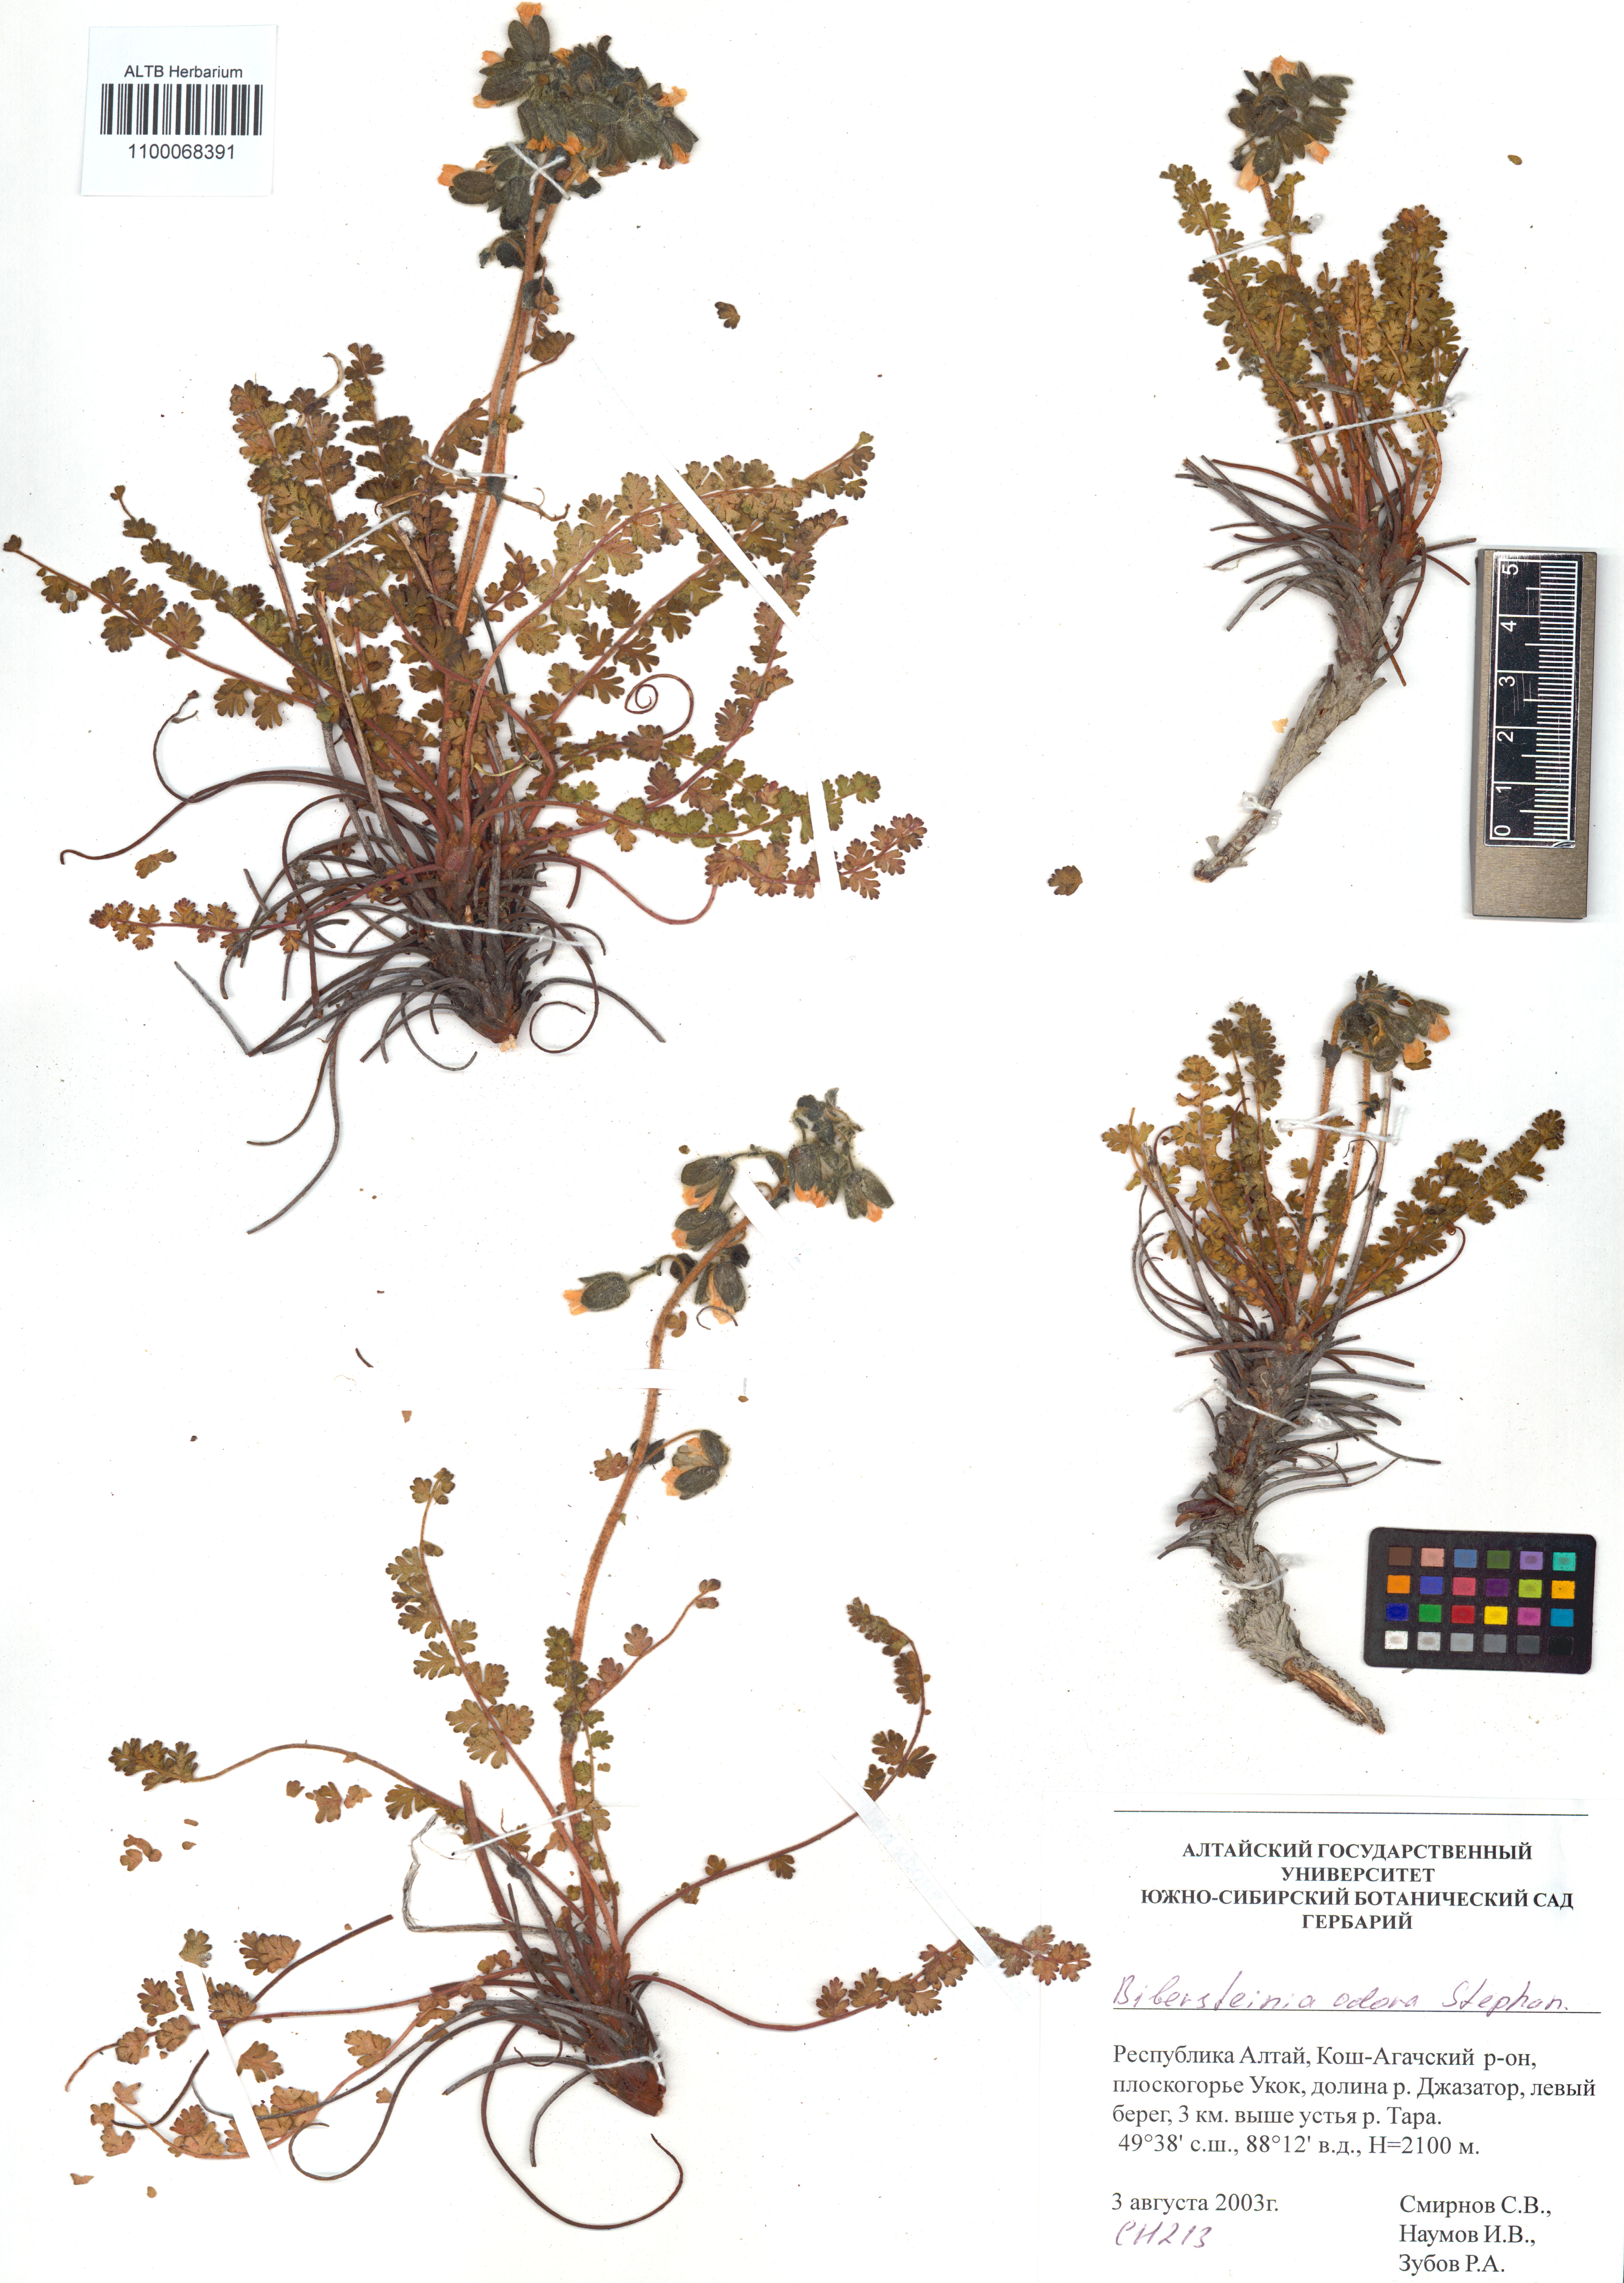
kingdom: Plantae
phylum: Tracheophyta
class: Magnoliopsida
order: Sapindales
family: Biebersteiniaceae
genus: Biebersteinia
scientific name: Biebersteinia odora
